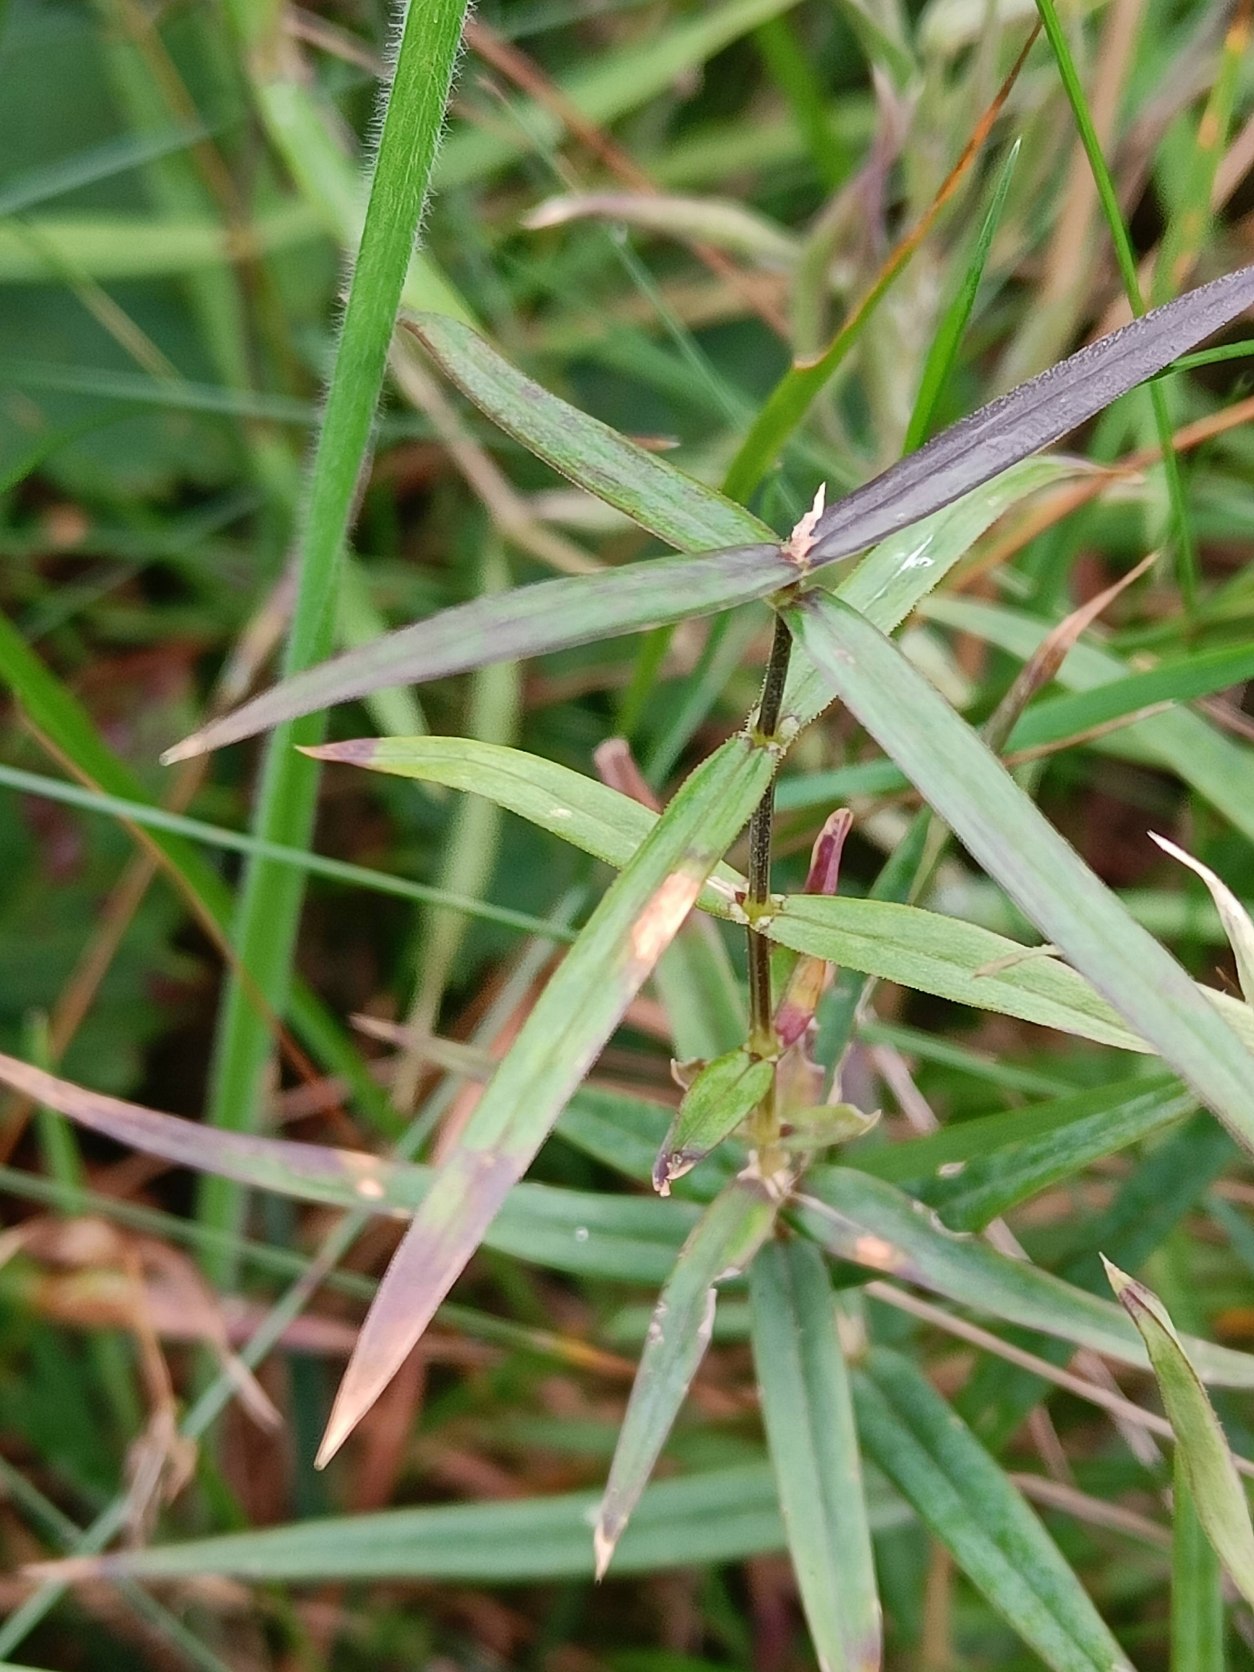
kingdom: Plantae
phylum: Tracheophyta
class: Magnoliopsida
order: Caryophyllales
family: Caryophyllaceae
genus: Rabelera
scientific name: Rabelera holostea
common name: Stor fladstjerne
